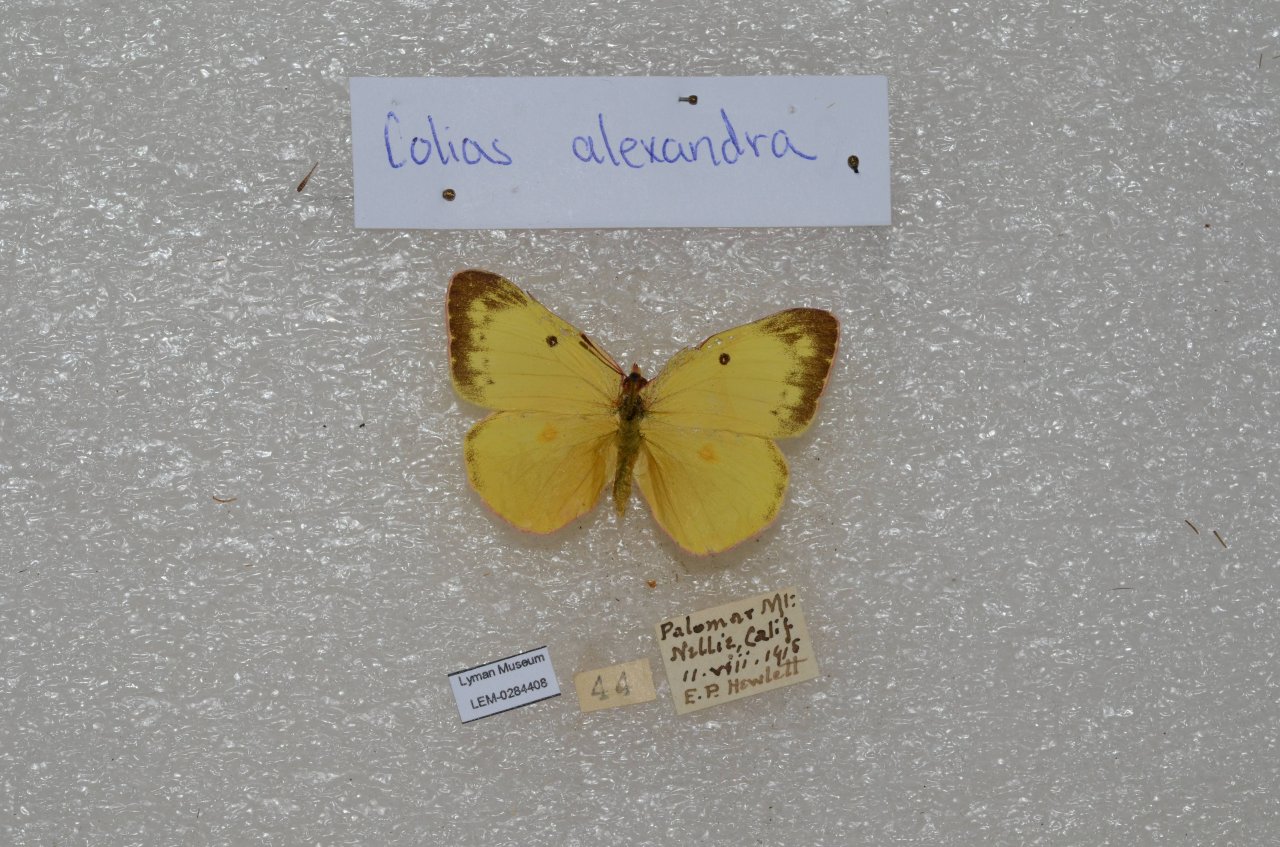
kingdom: Animalia
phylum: Arthropoda
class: Insecta
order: Lepidoptera
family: Pieridae
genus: Colias
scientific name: Colias alexandra
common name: Queen Alexandra's Sulphur
